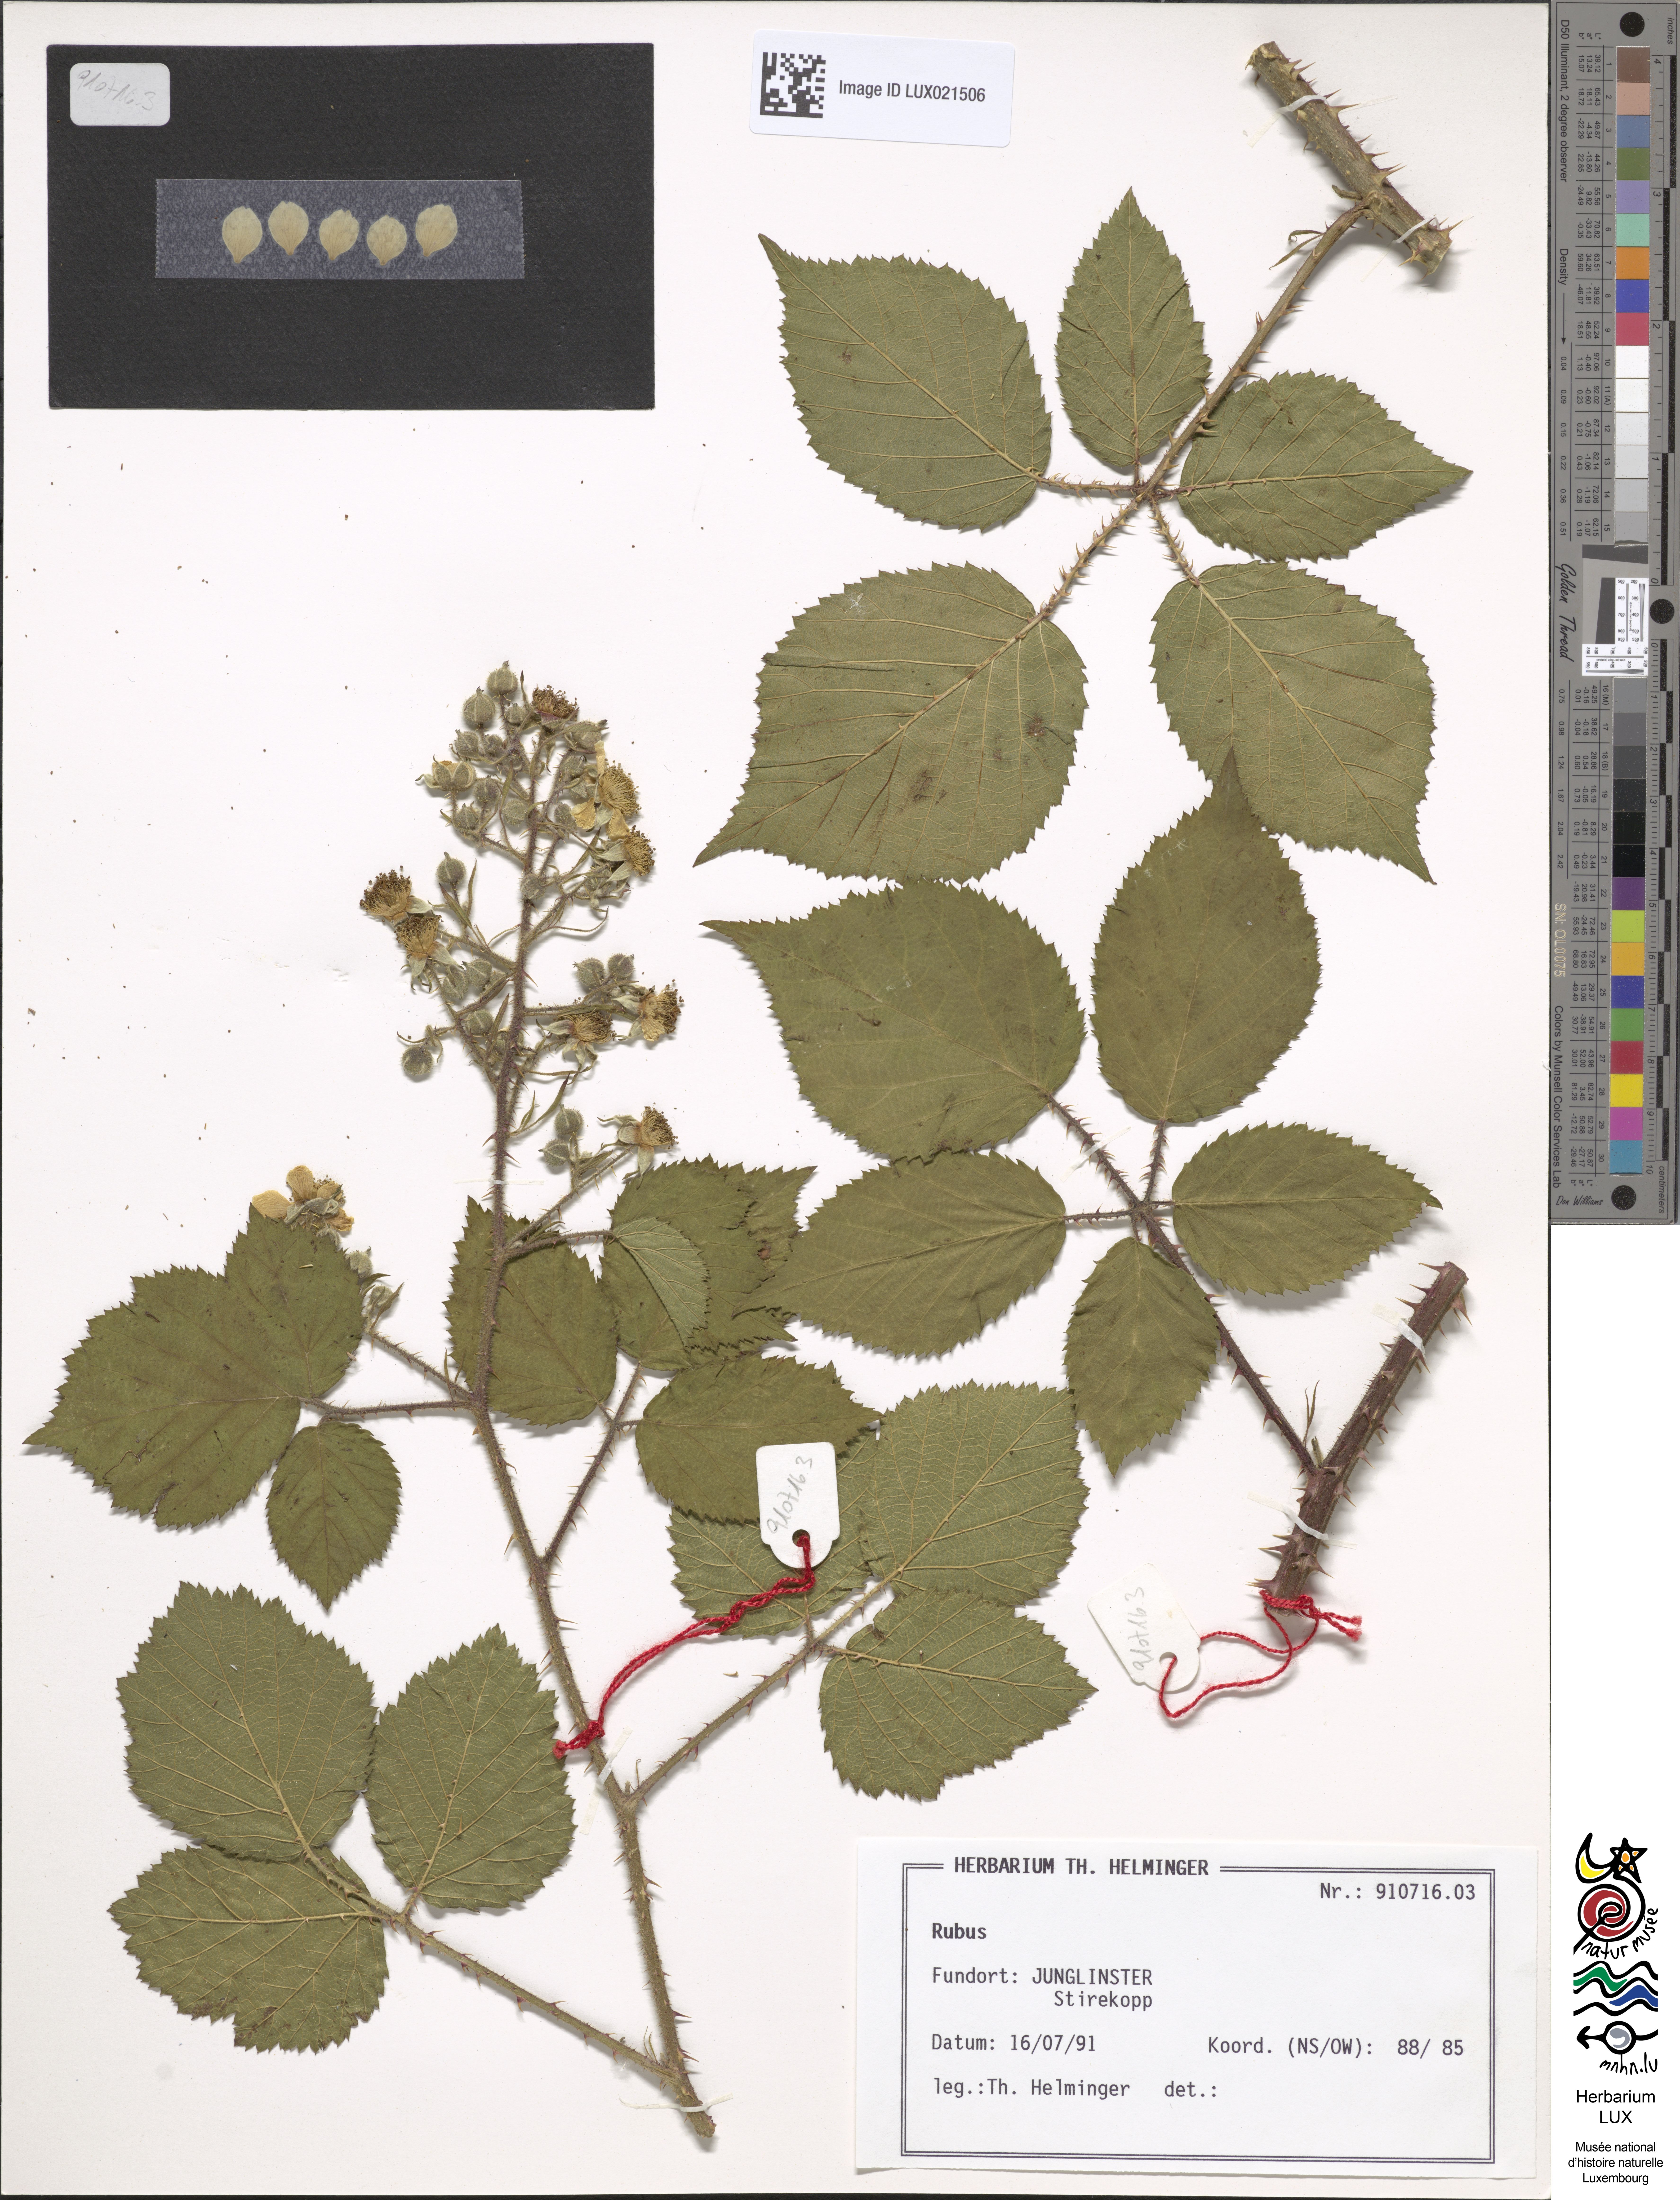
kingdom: Plantae
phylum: Tracheophyta
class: Magnoliopsida
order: Rosales
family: Rosaceae
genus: Rubus
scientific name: Rubus
